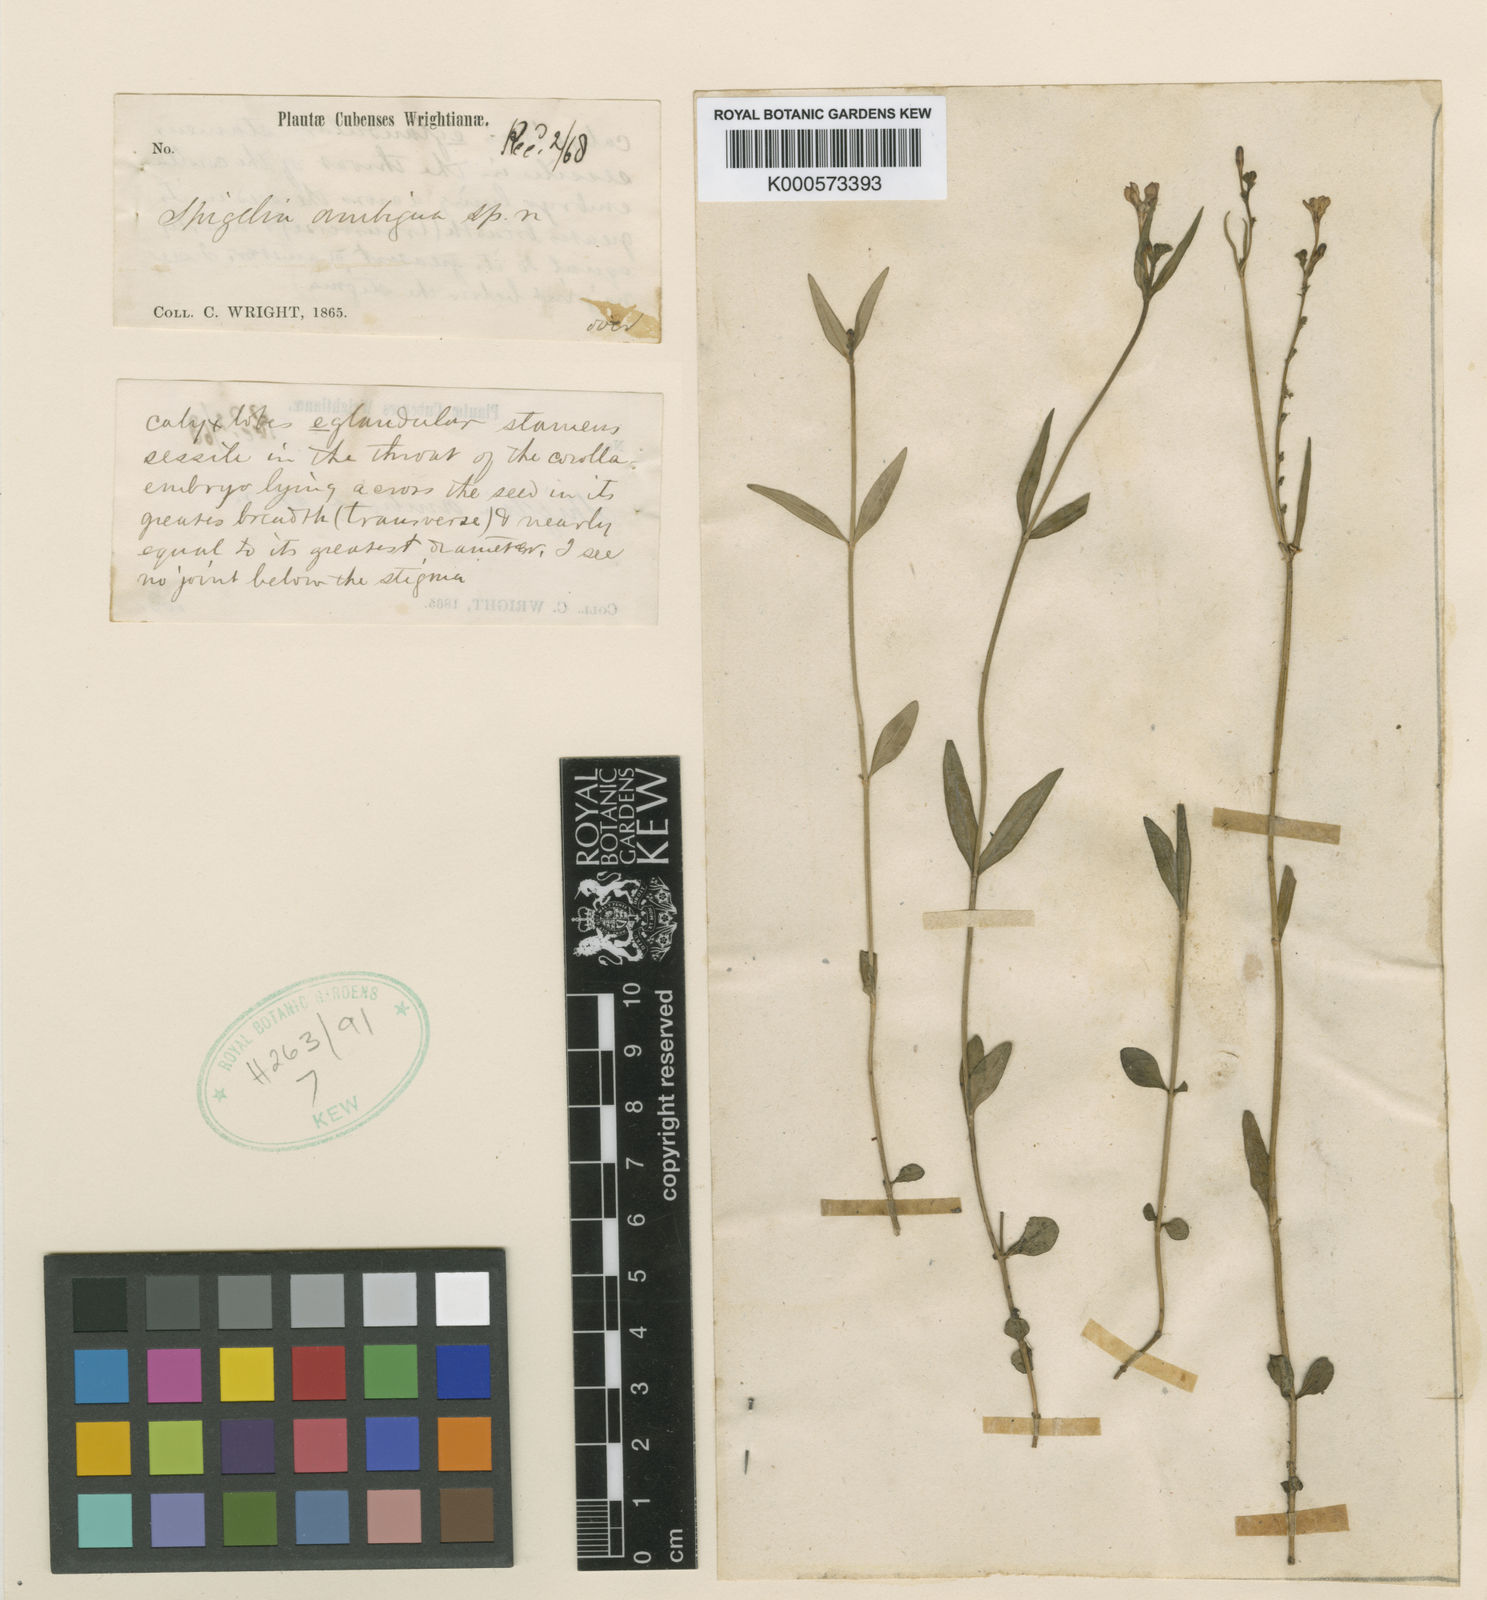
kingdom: Plantae
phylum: Tracheophyta
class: Magnoliopsida
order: Gentianales
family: Loganiaceae
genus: Spigelia
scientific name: Spigelia guianensis
